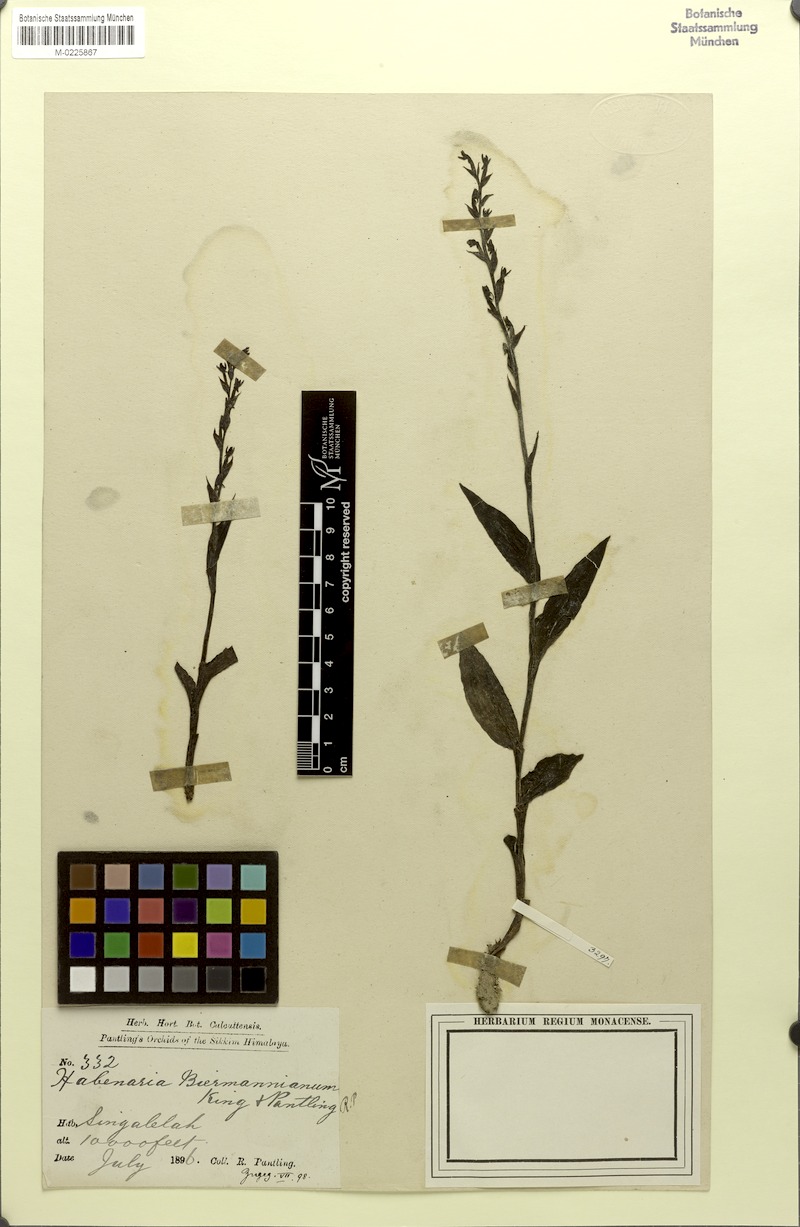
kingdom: Plantae
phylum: Tracheophyta
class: Liliopsida
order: Asparagales
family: Orchidaceae
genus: Peristylus
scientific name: Peristylus biermannianus
